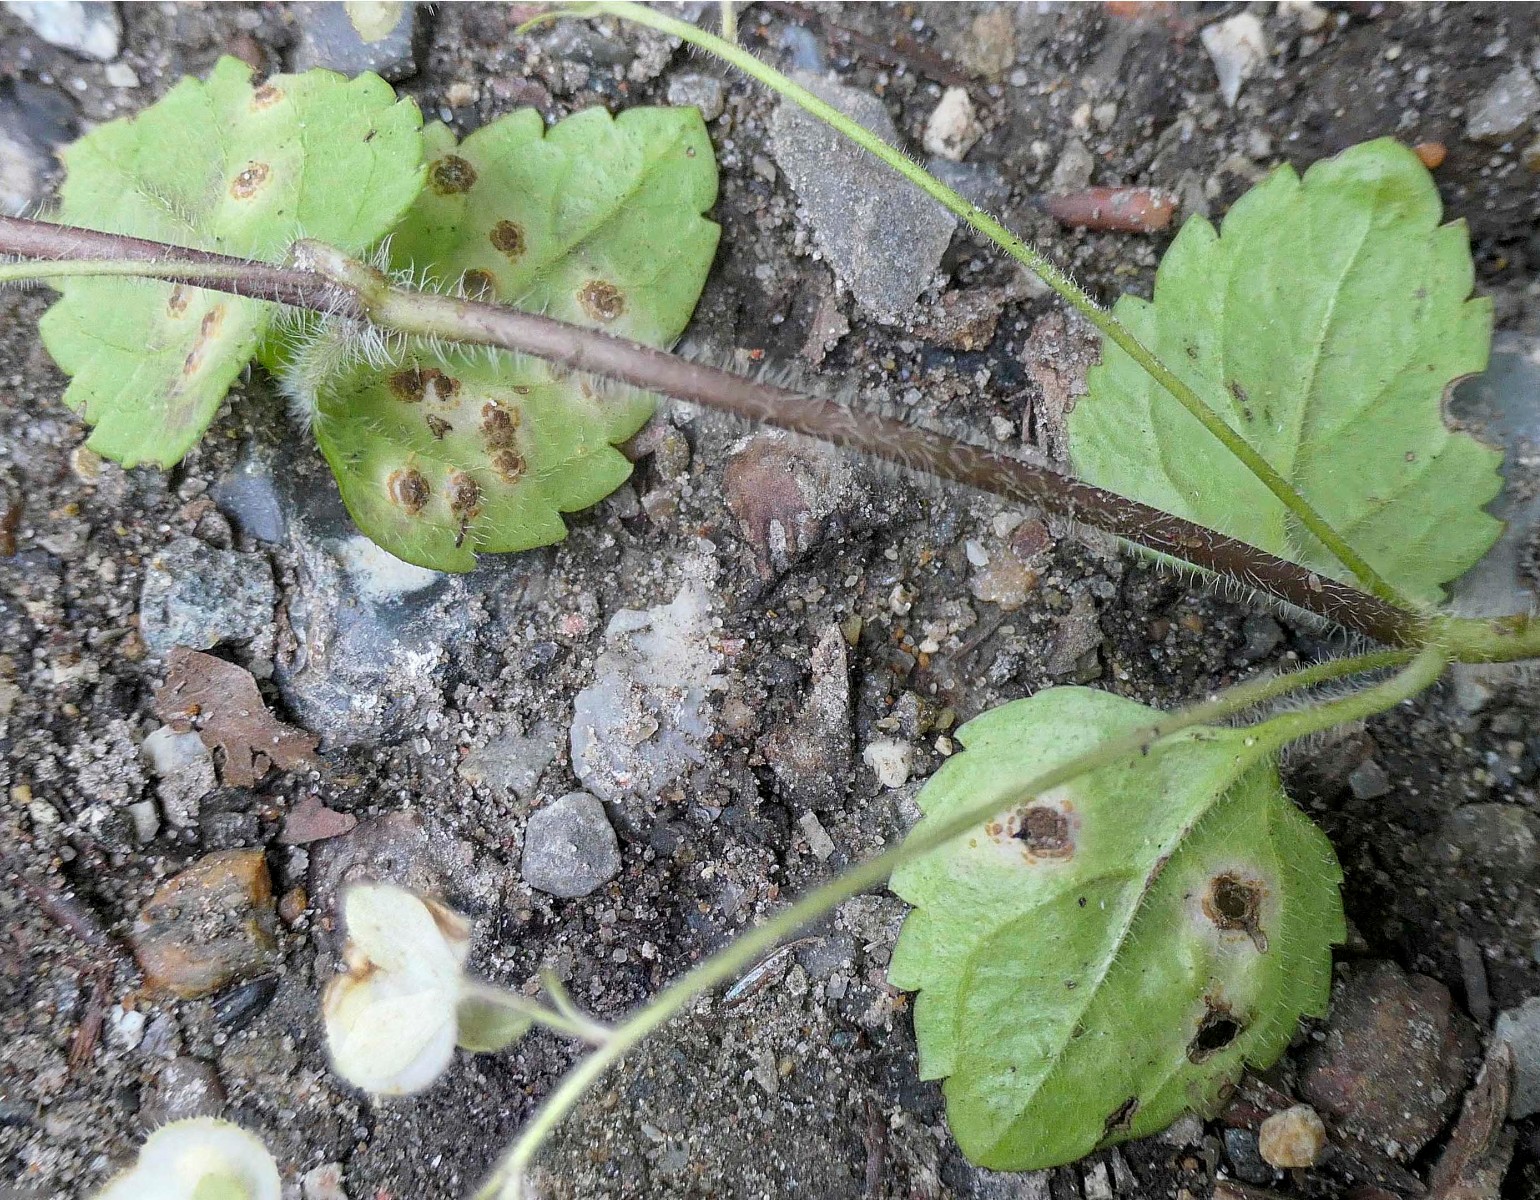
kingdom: Fungi
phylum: Basidiomycota
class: Pucciniomycetes
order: Pucciniales
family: Pucciniaceae
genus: Puccinia
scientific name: Puccinia albulensis
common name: Alpine veronica rust
